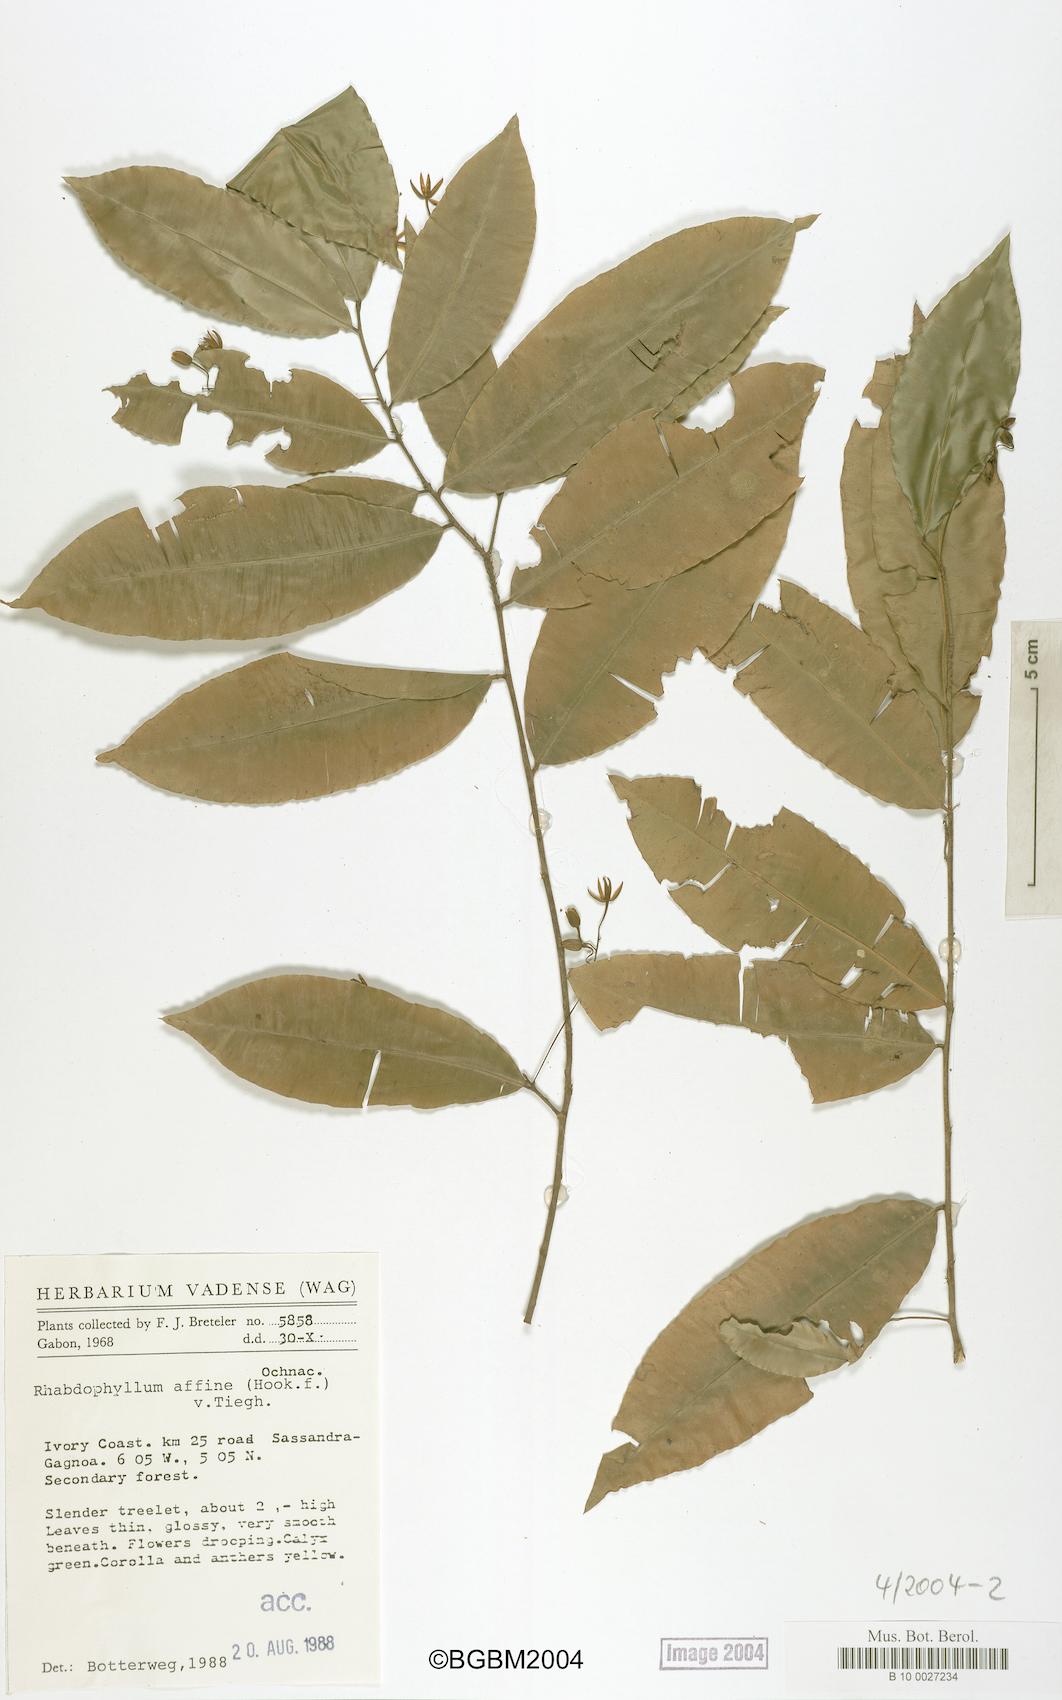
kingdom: Plantae
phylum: Tracheophyta
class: Magnoliopsida
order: Malpighiales
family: Ochnaceae
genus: Rhabdophyllum
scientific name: Rhabdophyllum affine
